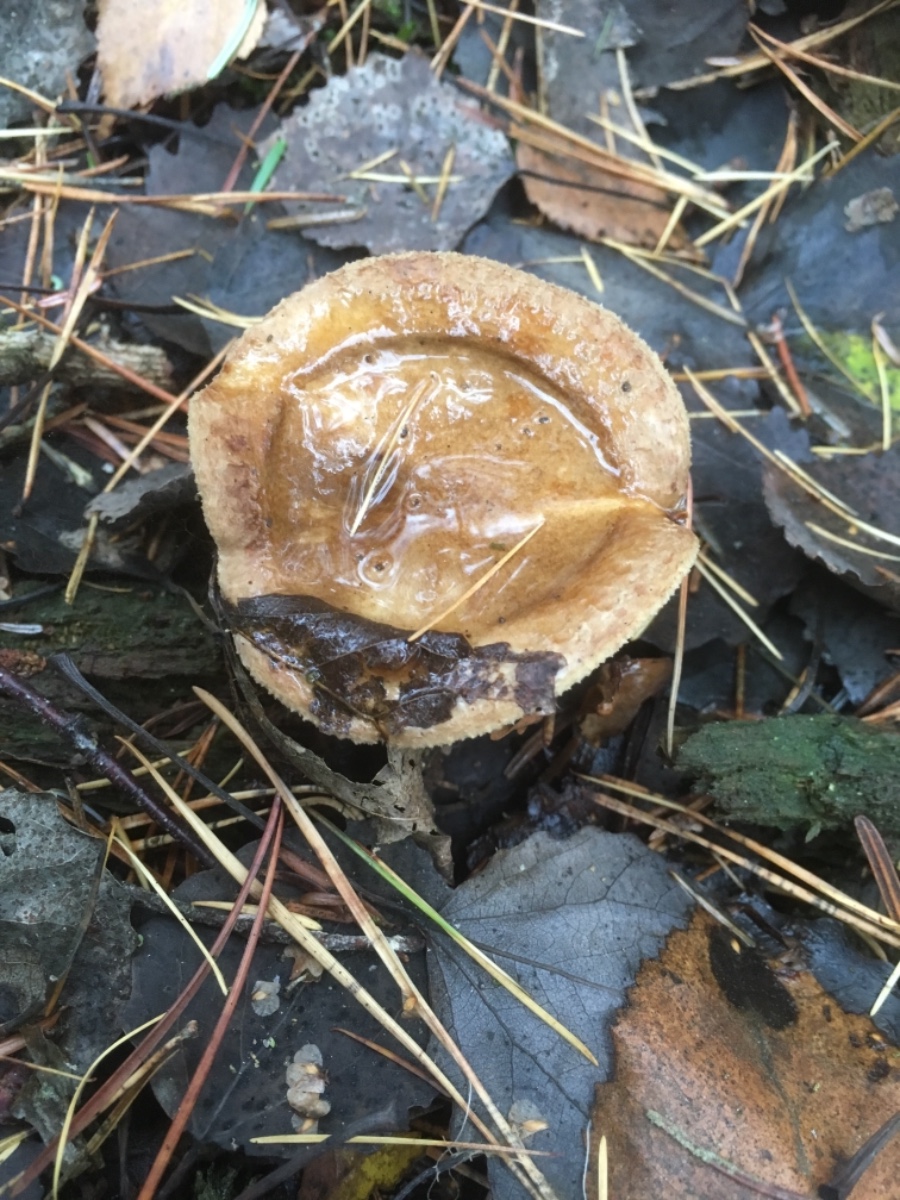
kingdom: Fungi
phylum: Basidiomycota
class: Agaricomycetes
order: Boletales
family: Paxillaceae
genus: Paxillus
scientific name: Paxillus involutus
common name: almindelig netbladhat
